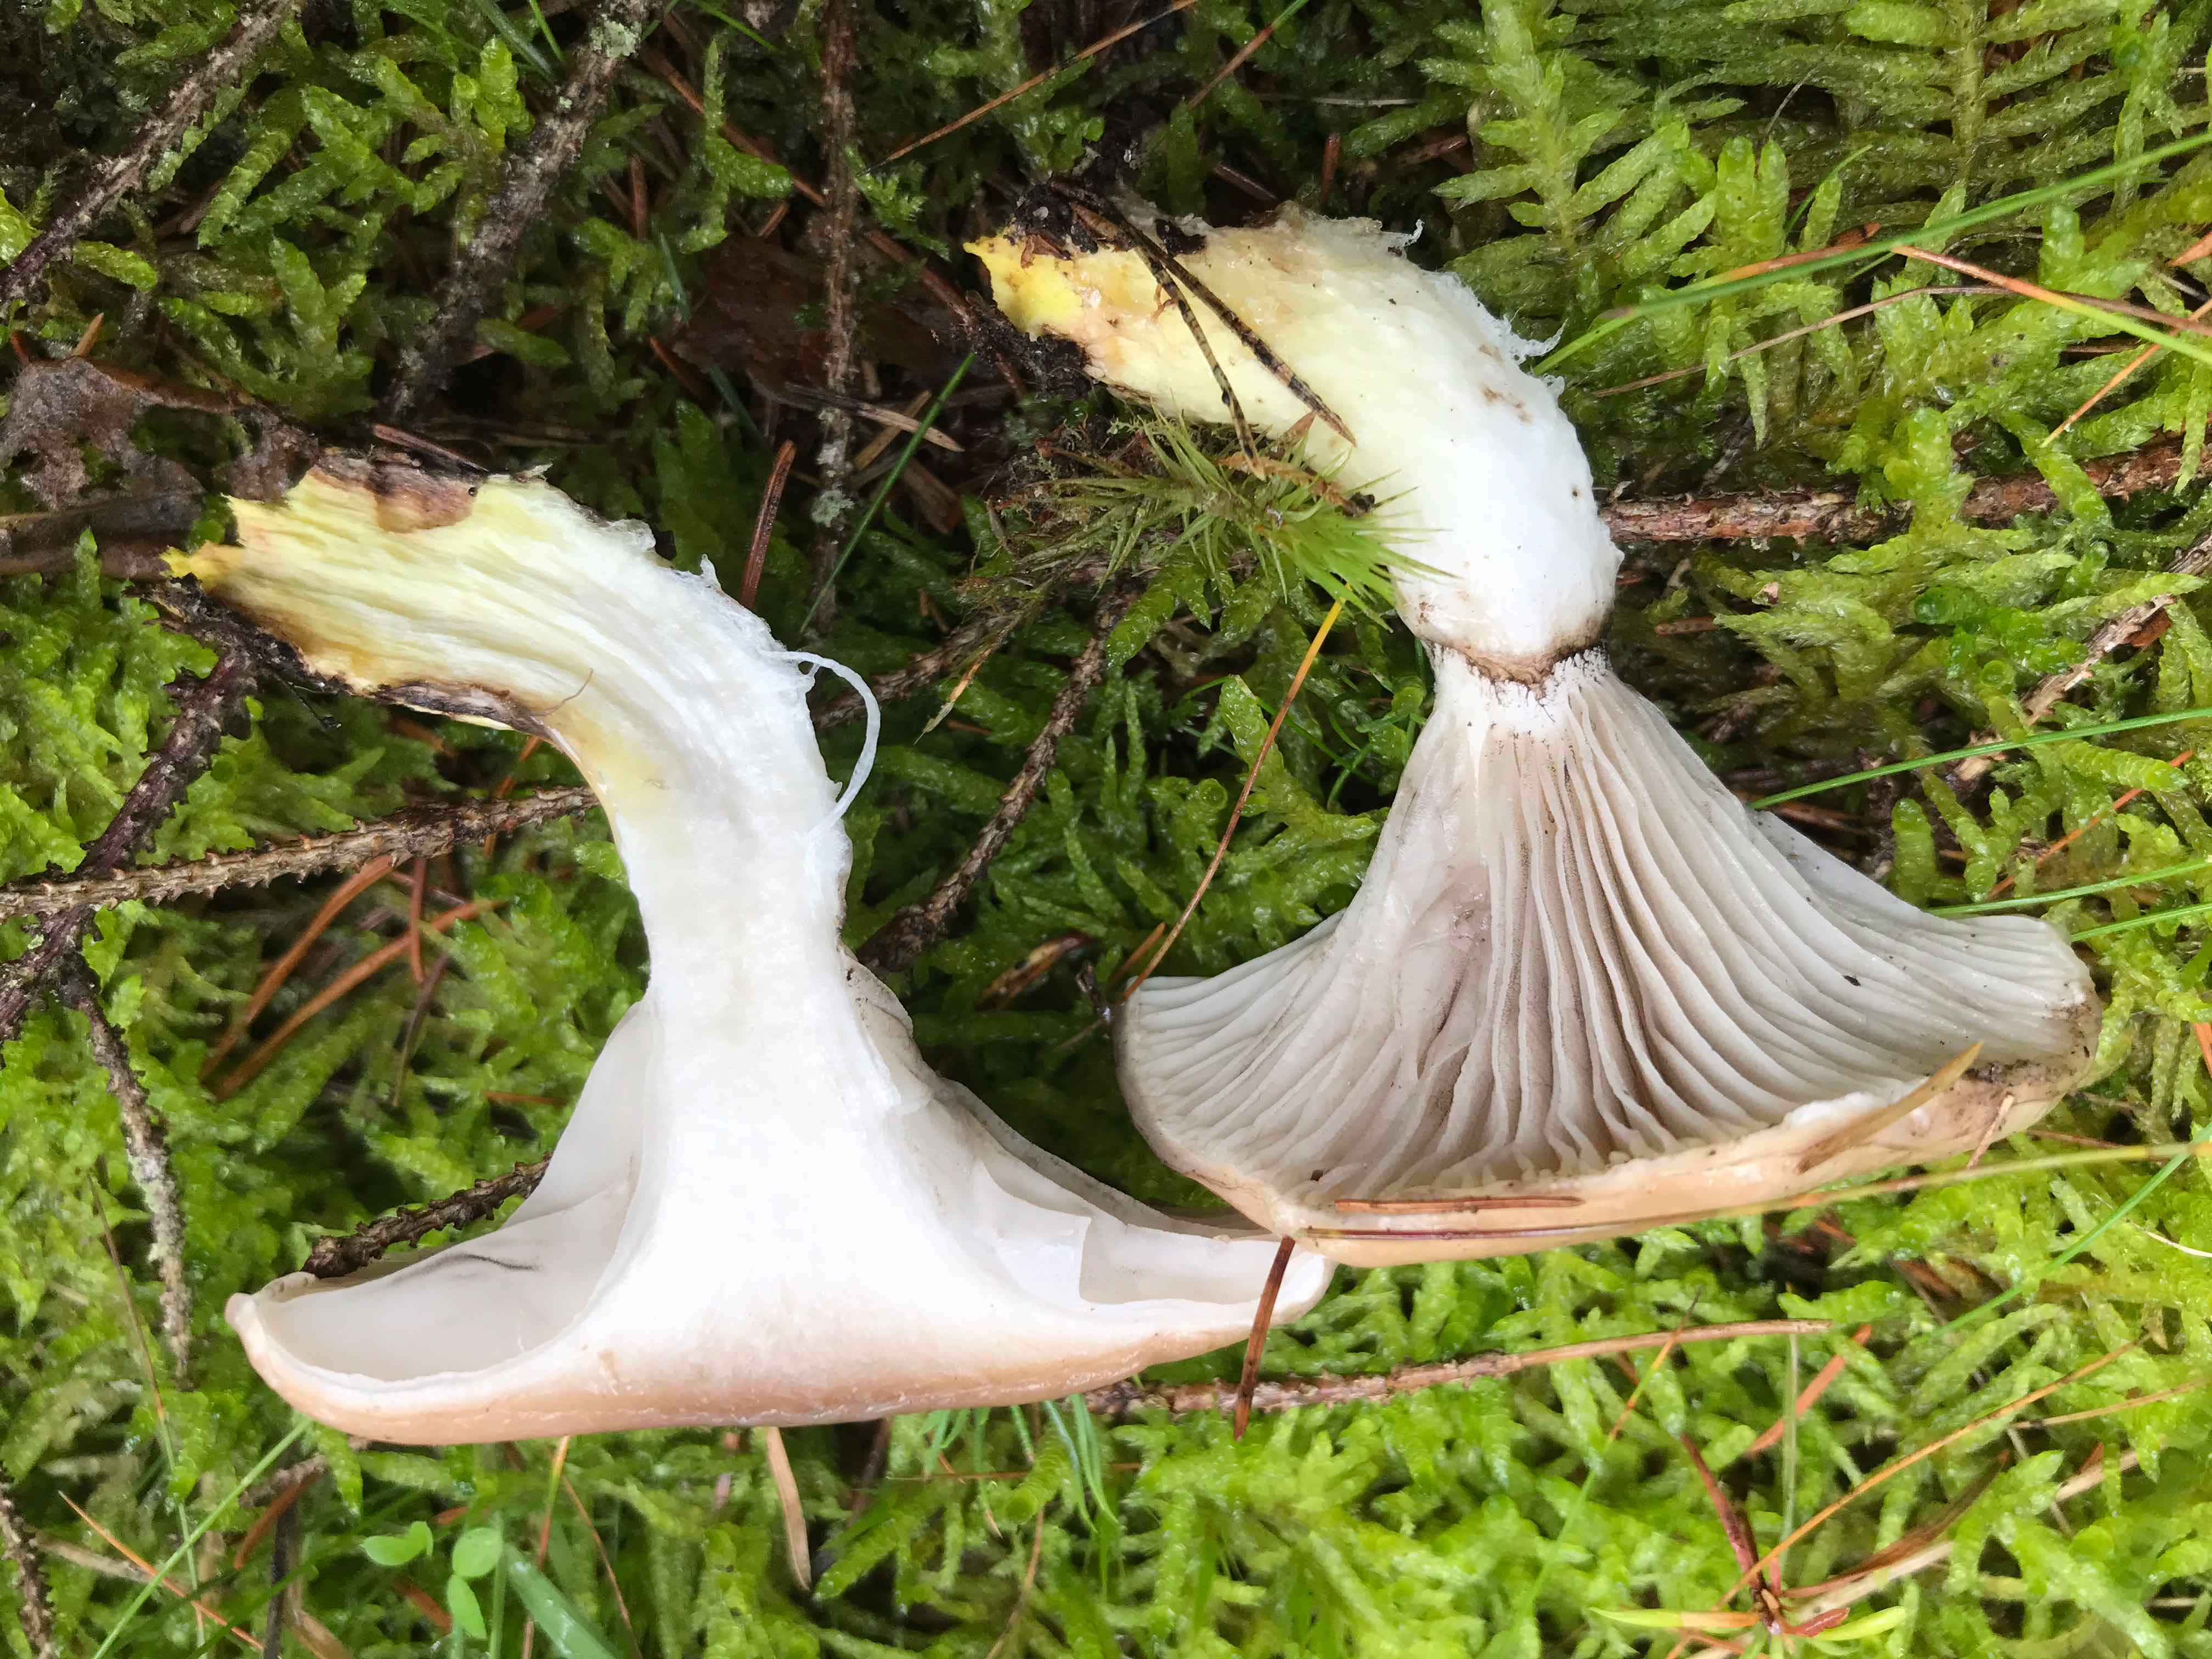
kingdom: Fungi
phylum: Basidiomycota
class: Agaricomycetes
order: Boletales
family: Gomphidiaceae
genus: Gomphidius
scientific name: Gomphidius glutinosus
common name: grå slimslør
